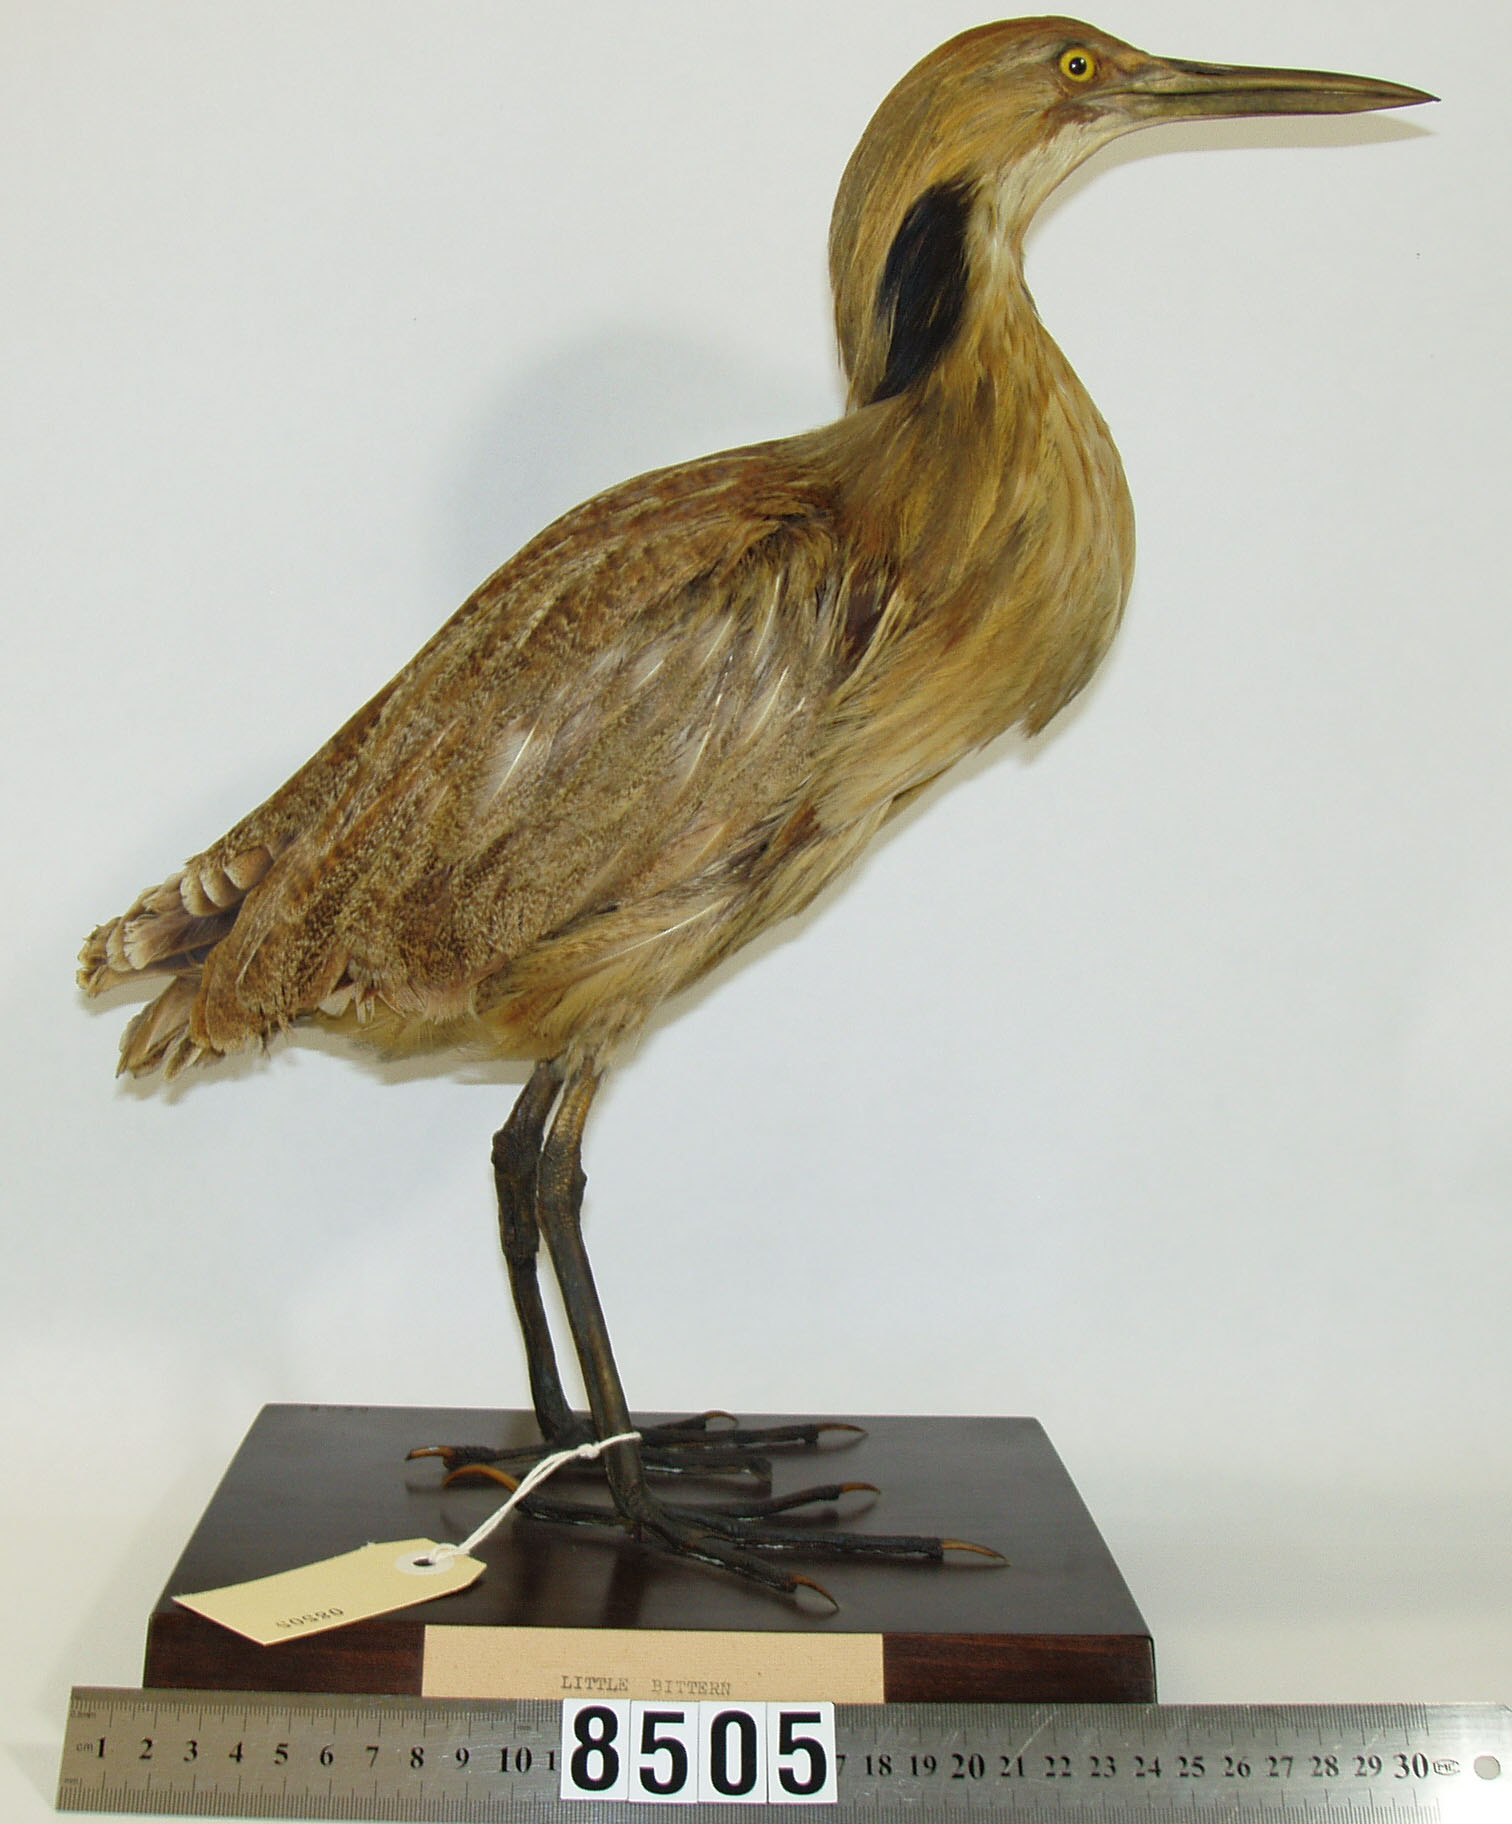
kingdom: Animalia
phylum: Chordata
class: Aves
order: Pelecaniformes
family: Ardeidae
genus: Botaurus
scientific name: Botaurus lentiginosus
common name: American bittern
